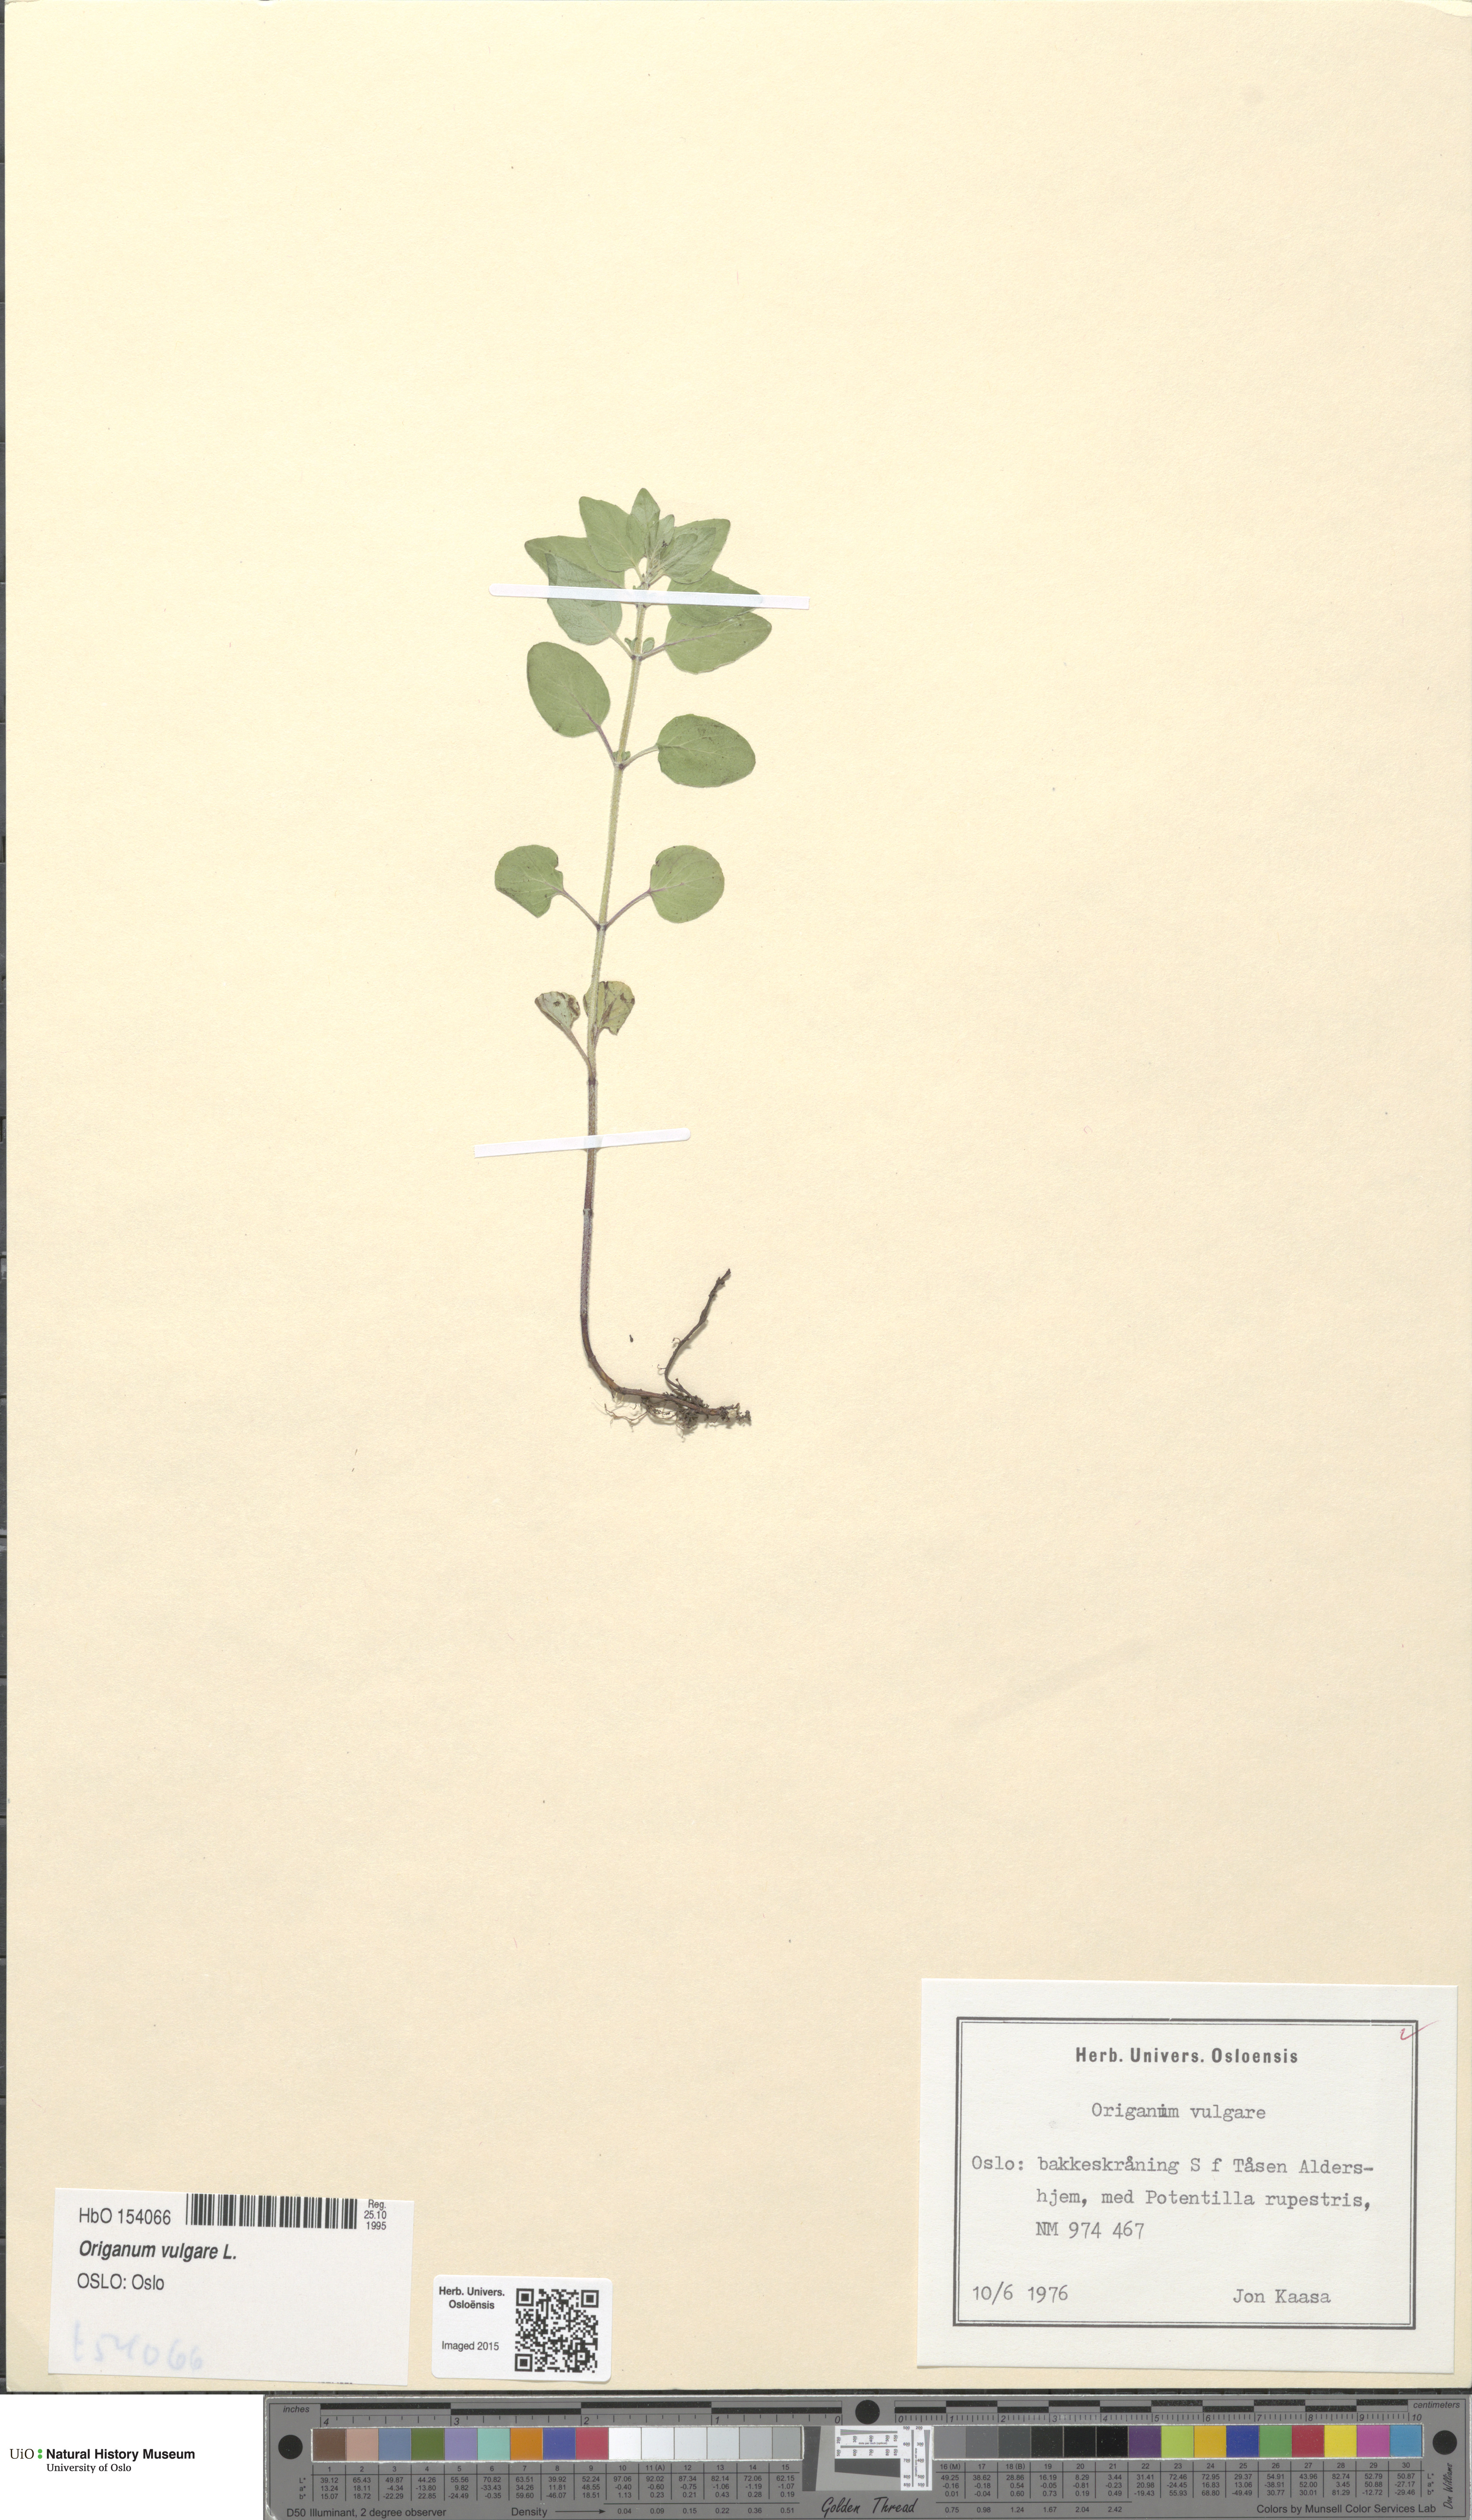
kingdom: Plantae
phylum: Tracheophyta
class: Magnoliopsida
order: Lamiales
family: Lamiaceae
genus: Origanum
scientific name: Origanum vulgare
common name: Wild marjoram
